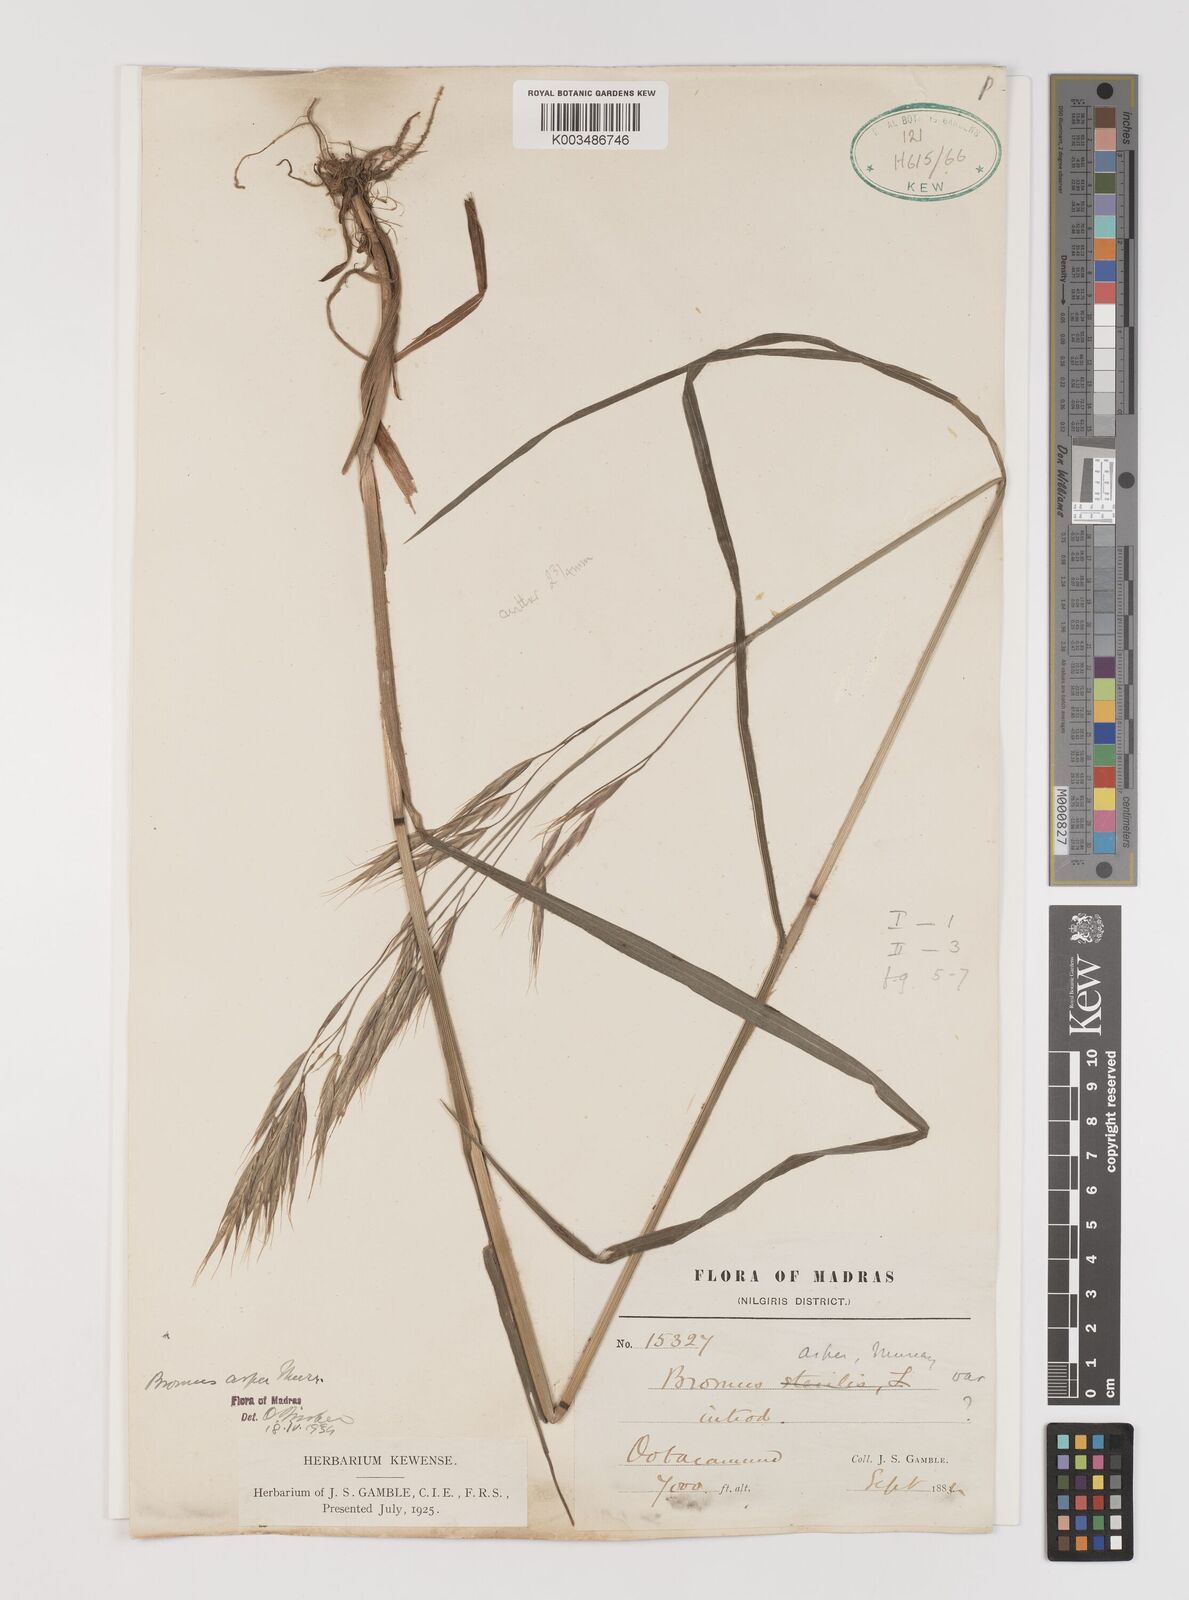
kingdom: Plantae
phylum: Tracheophyta
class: Liliopsida
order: Poales
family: Poaceae
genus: Brachypodium
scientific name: Brachypodium retusum
